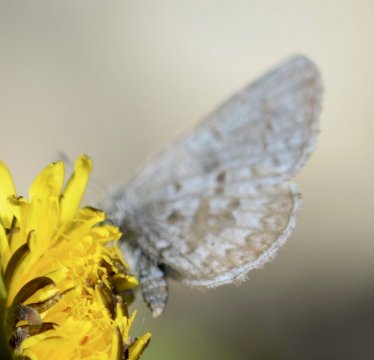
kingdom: Animalia
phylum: Arthropoda
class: Insecta
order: Lepidoptera
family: Lycaenidae
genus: Celastrina
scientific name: Celastrina lucia
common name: Northern Spring Azure
